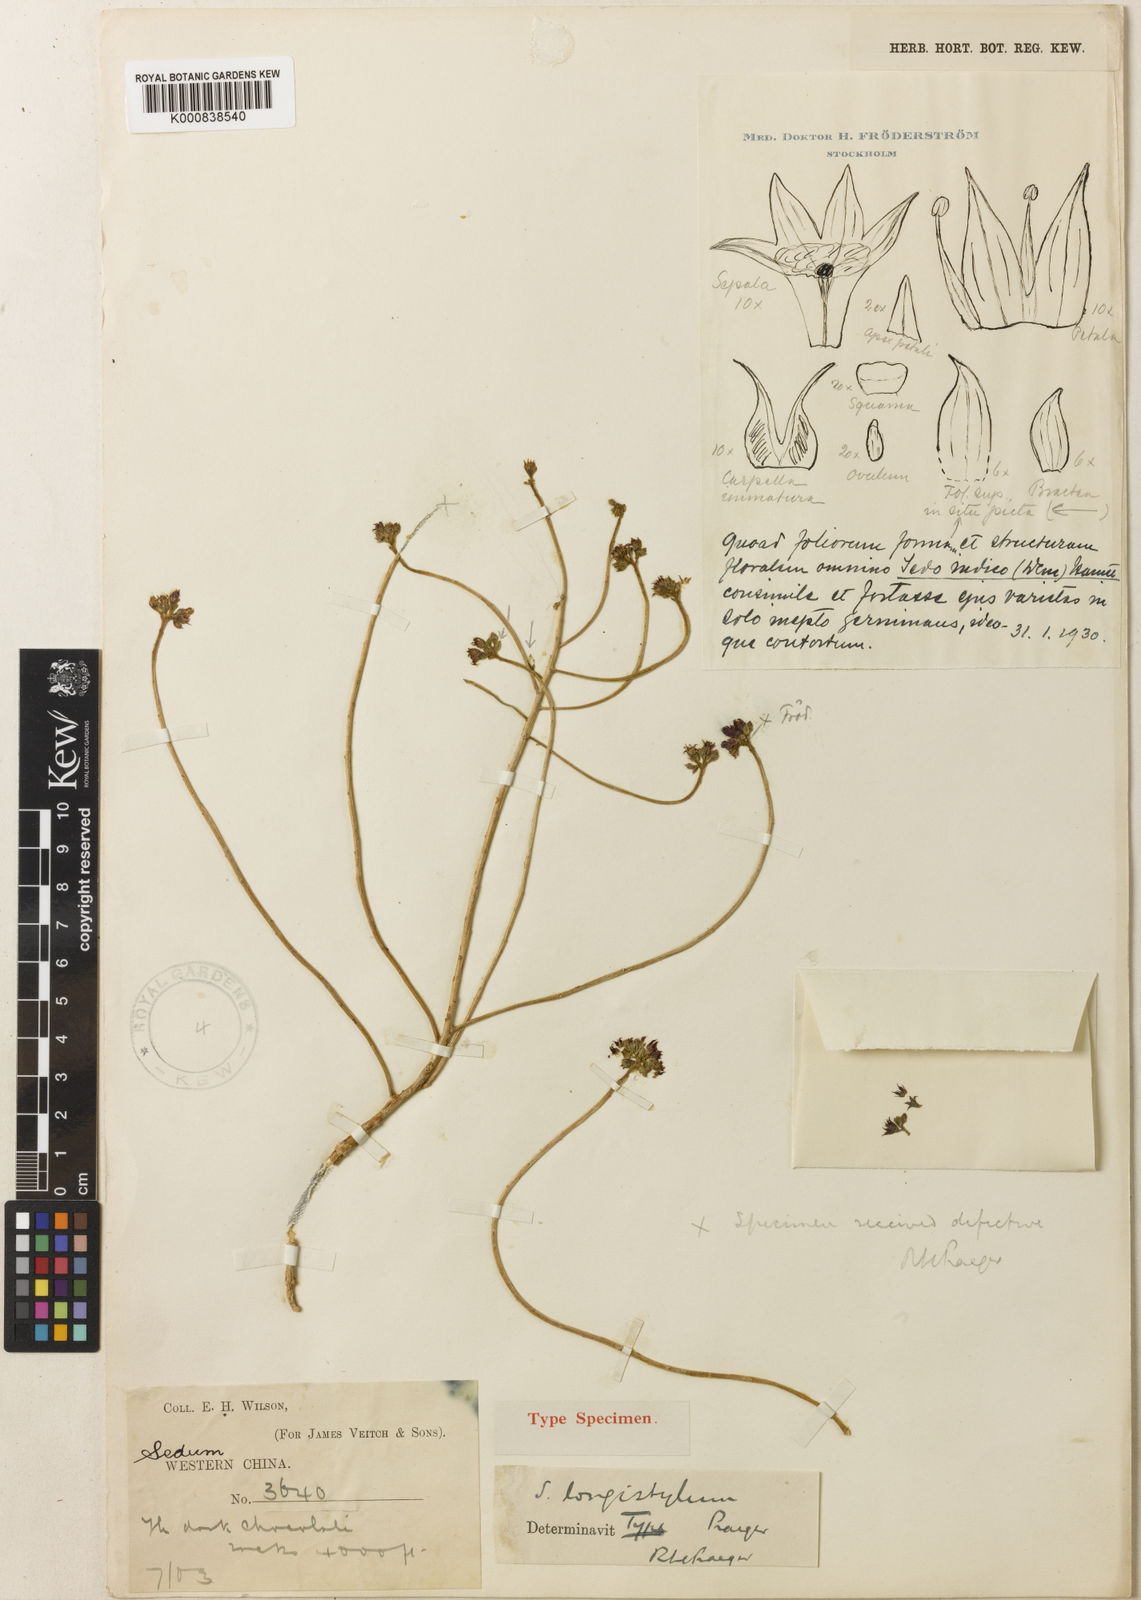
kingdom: Plantae
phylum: Tracheophyta
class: Magnoliopsida
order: Saxifragales
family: Crassulaceae
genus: Sinocrassula
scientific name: Sinocrassula indica
